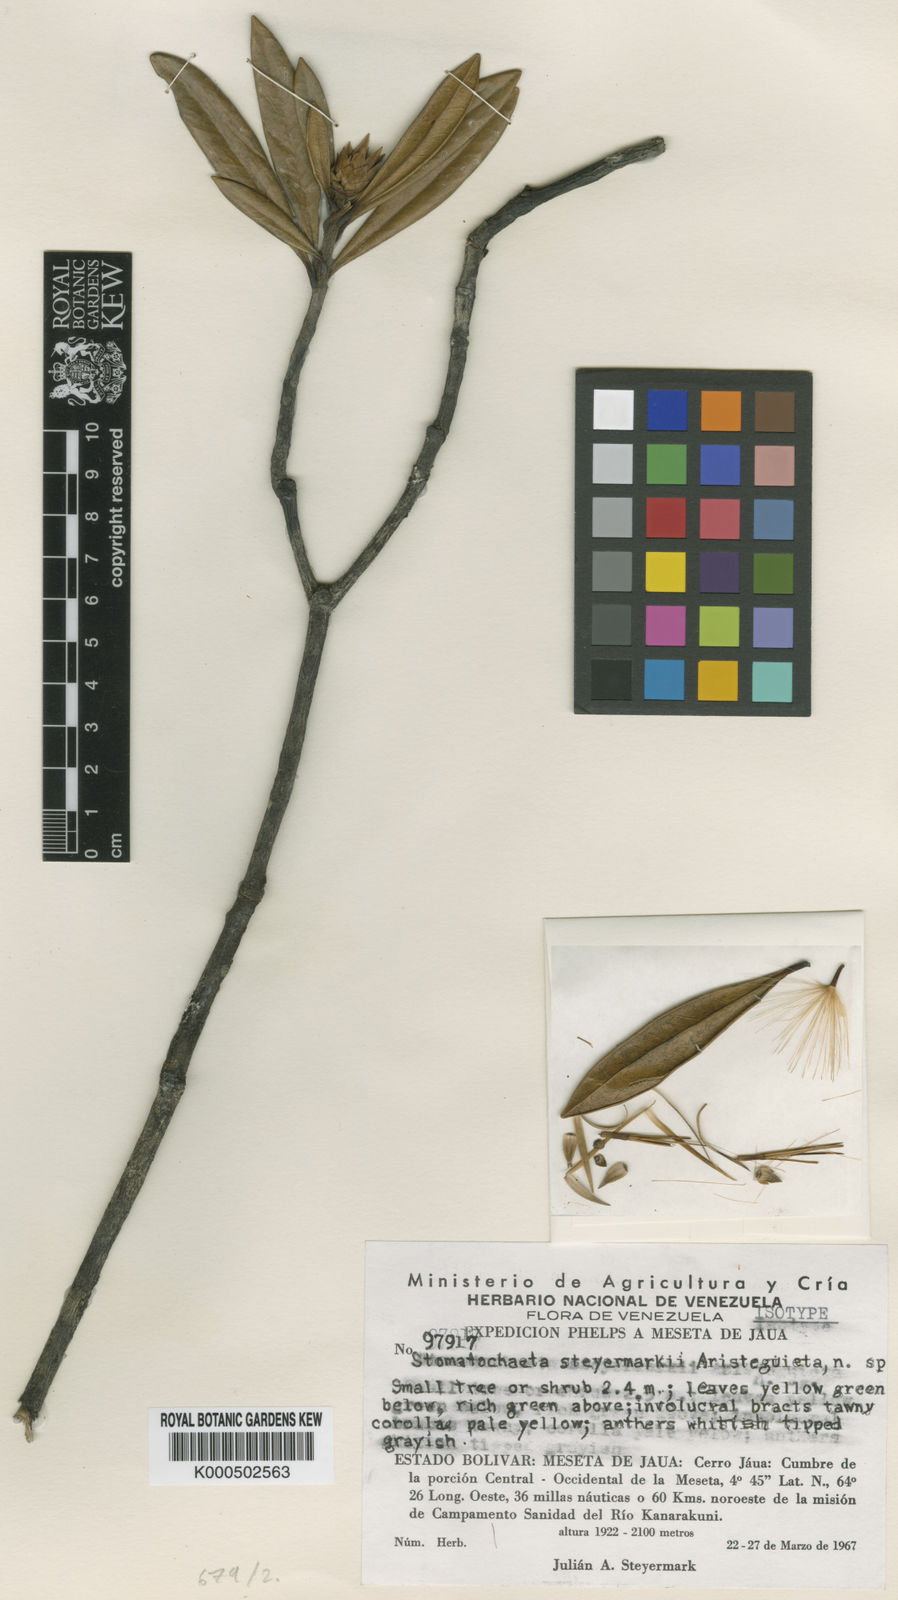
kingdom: Plantae
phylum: Tracheophyta
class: Magnoliopsida
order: Asterales
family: Asteraceae
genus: Stomatochaeta
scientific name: Stomatochaeta steyermarkii
